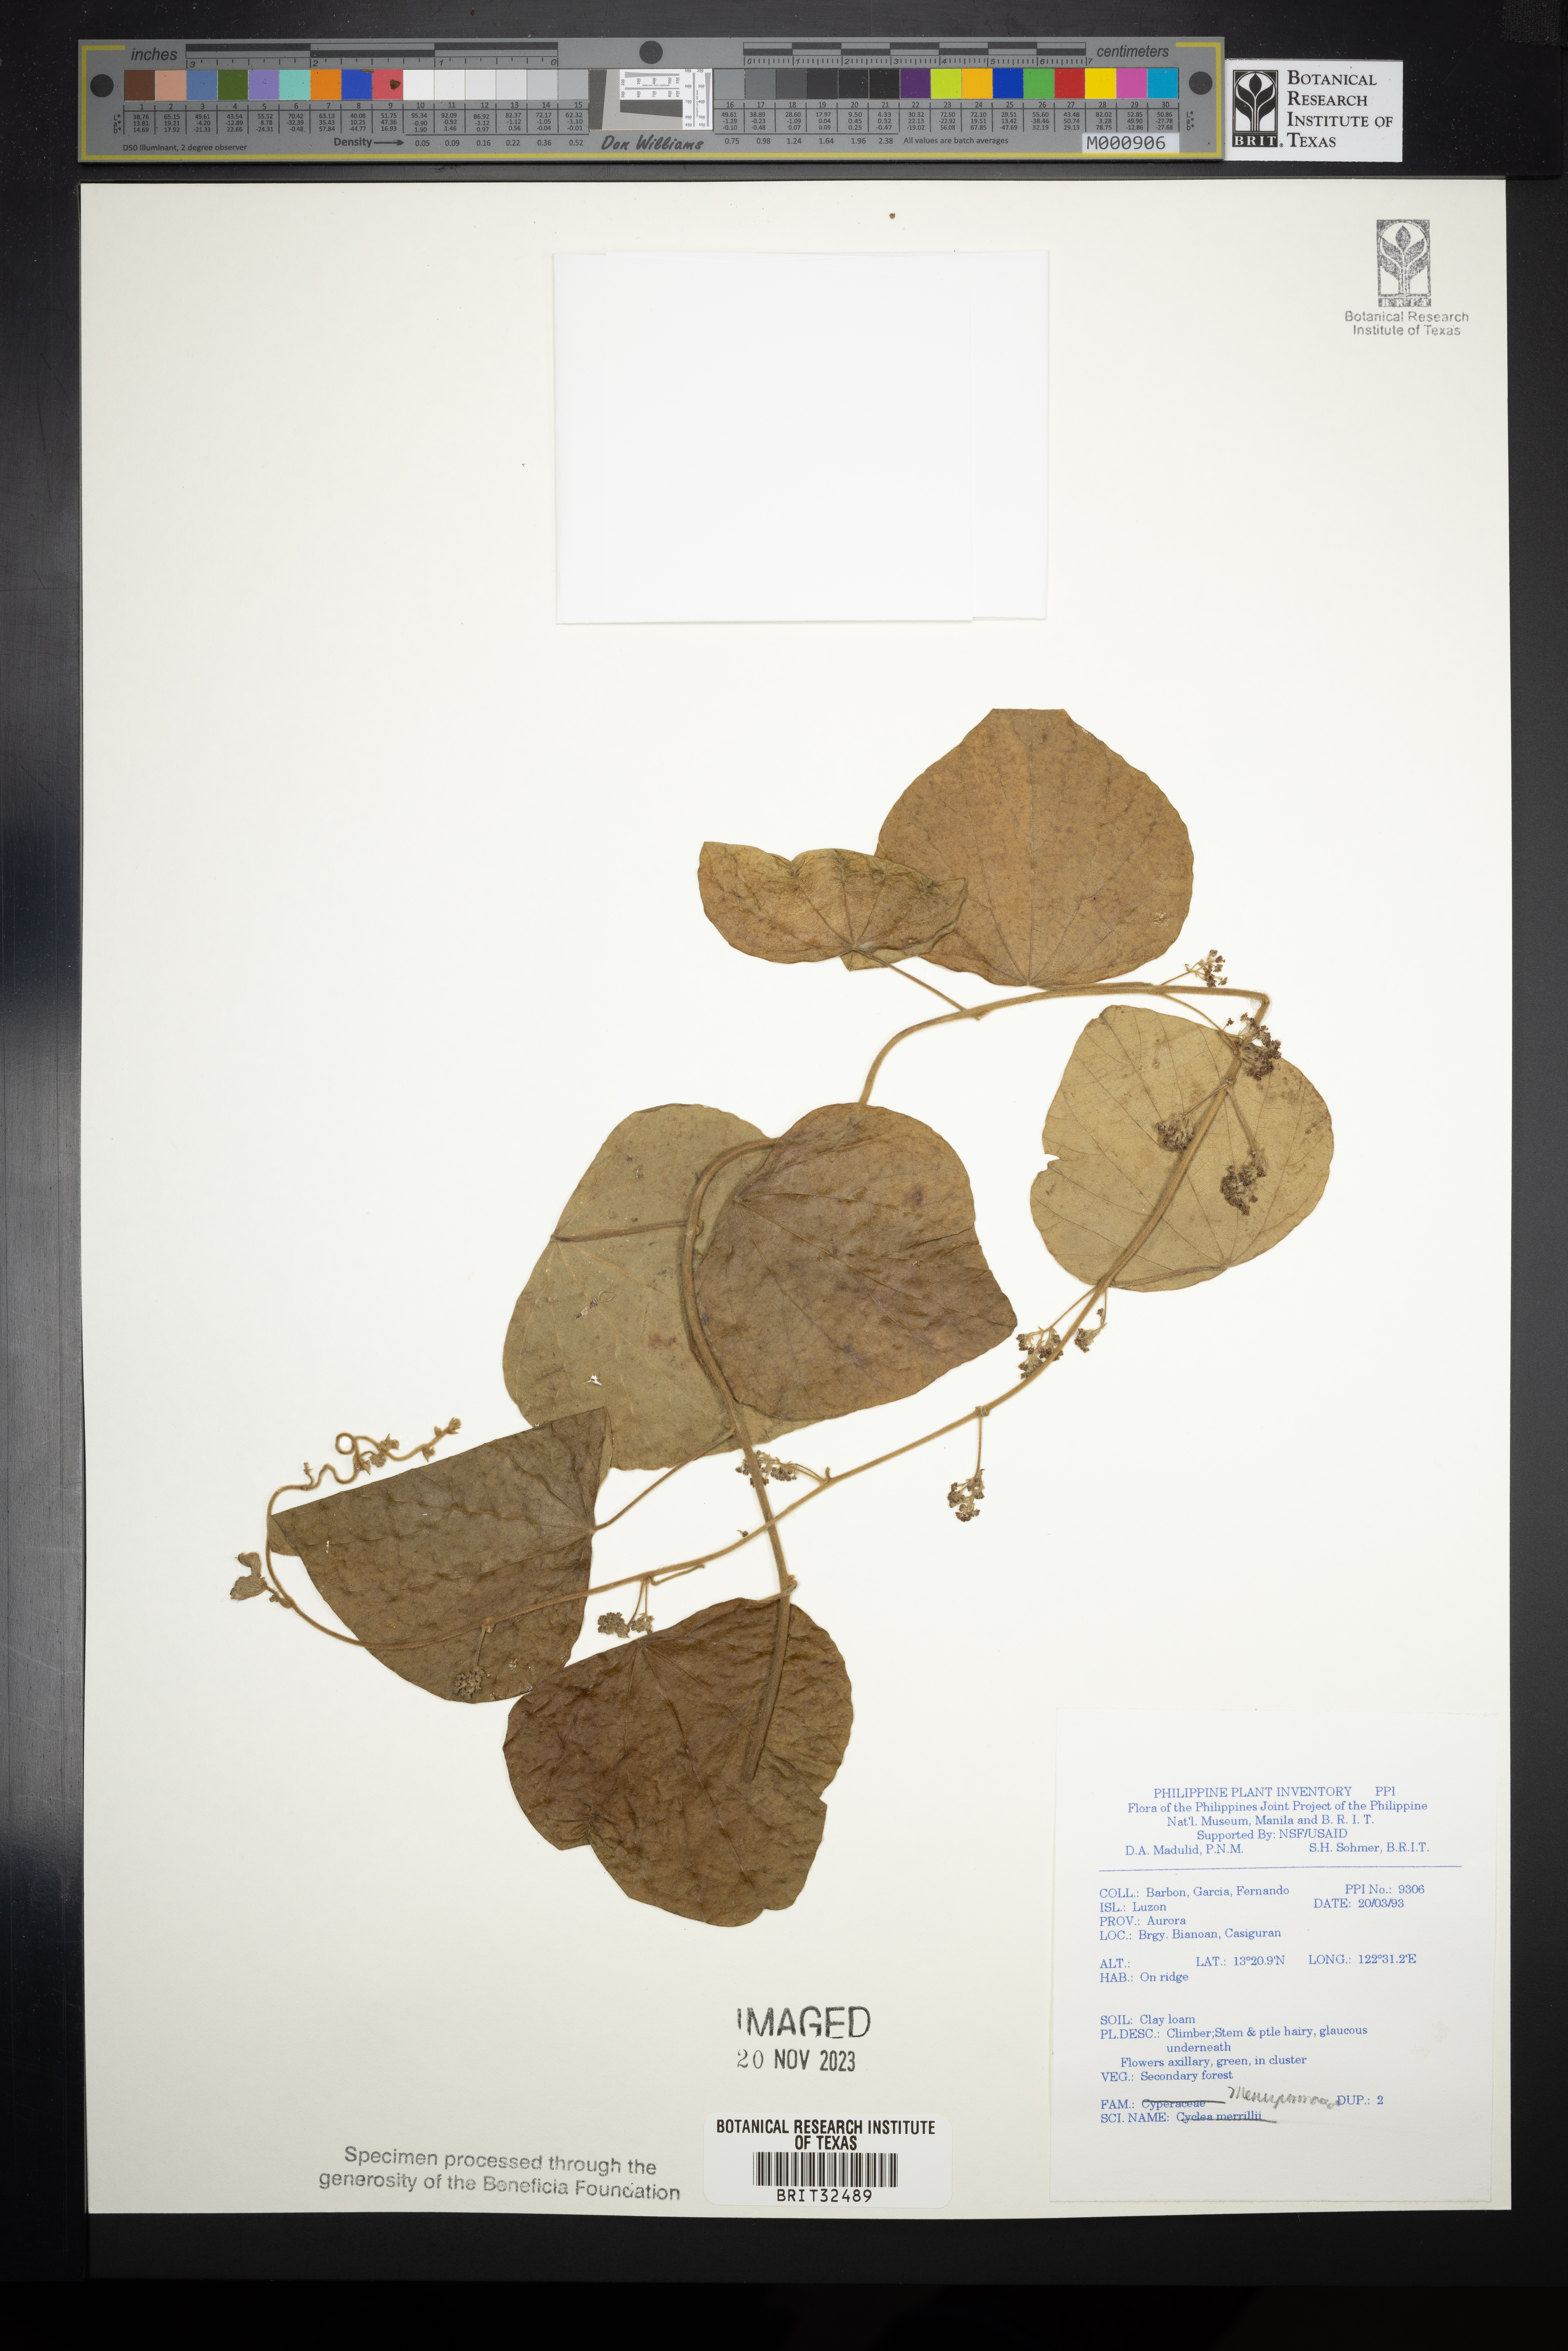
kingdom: Plantae
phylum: Tracheophyta
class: Magnoliopsida
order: Ranunculales
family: Menispermaceae
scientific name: Menispermaceae
